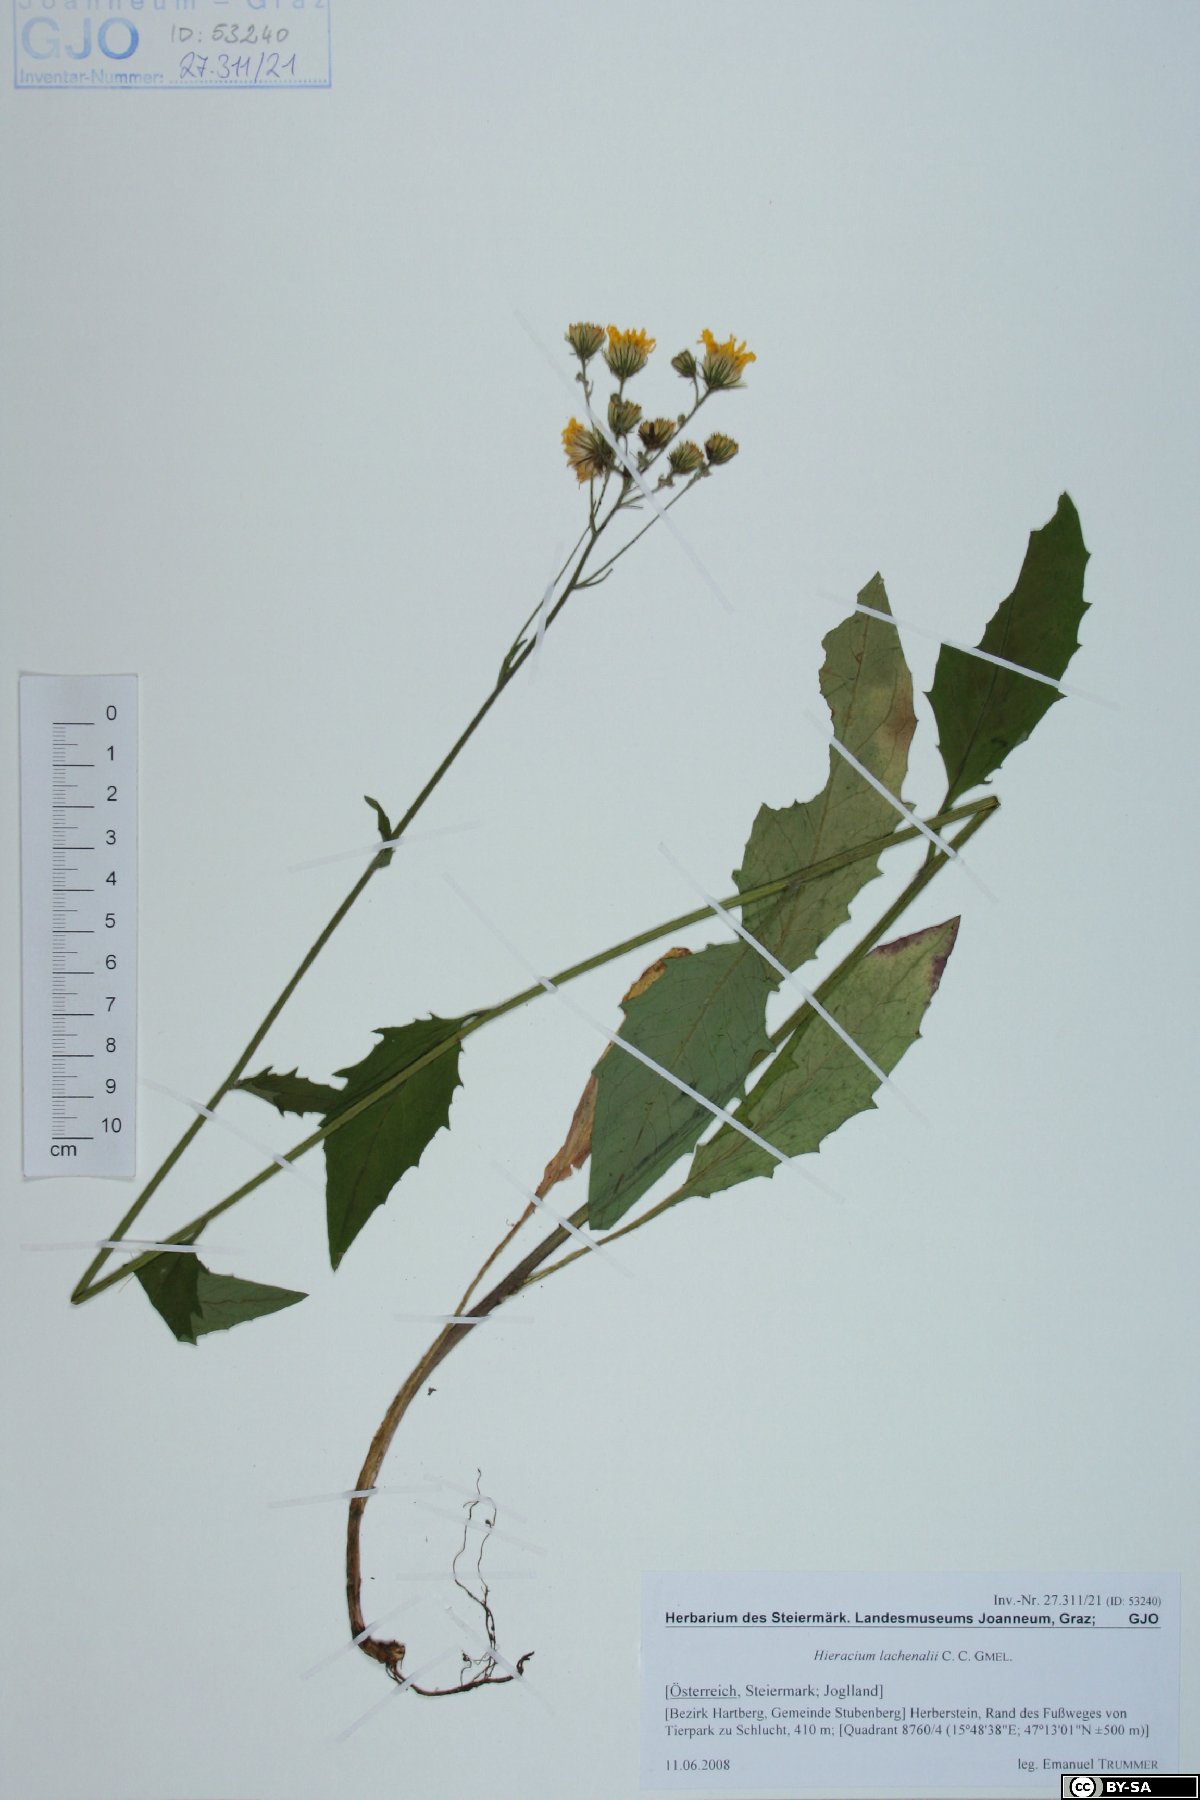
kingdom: Plantae
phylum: Tracheophyta
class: Magnoliopsida
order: Asterales
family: Asteraceae
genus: Hieracium
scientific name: Hieracium lachenalii
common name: Common hawkweed
